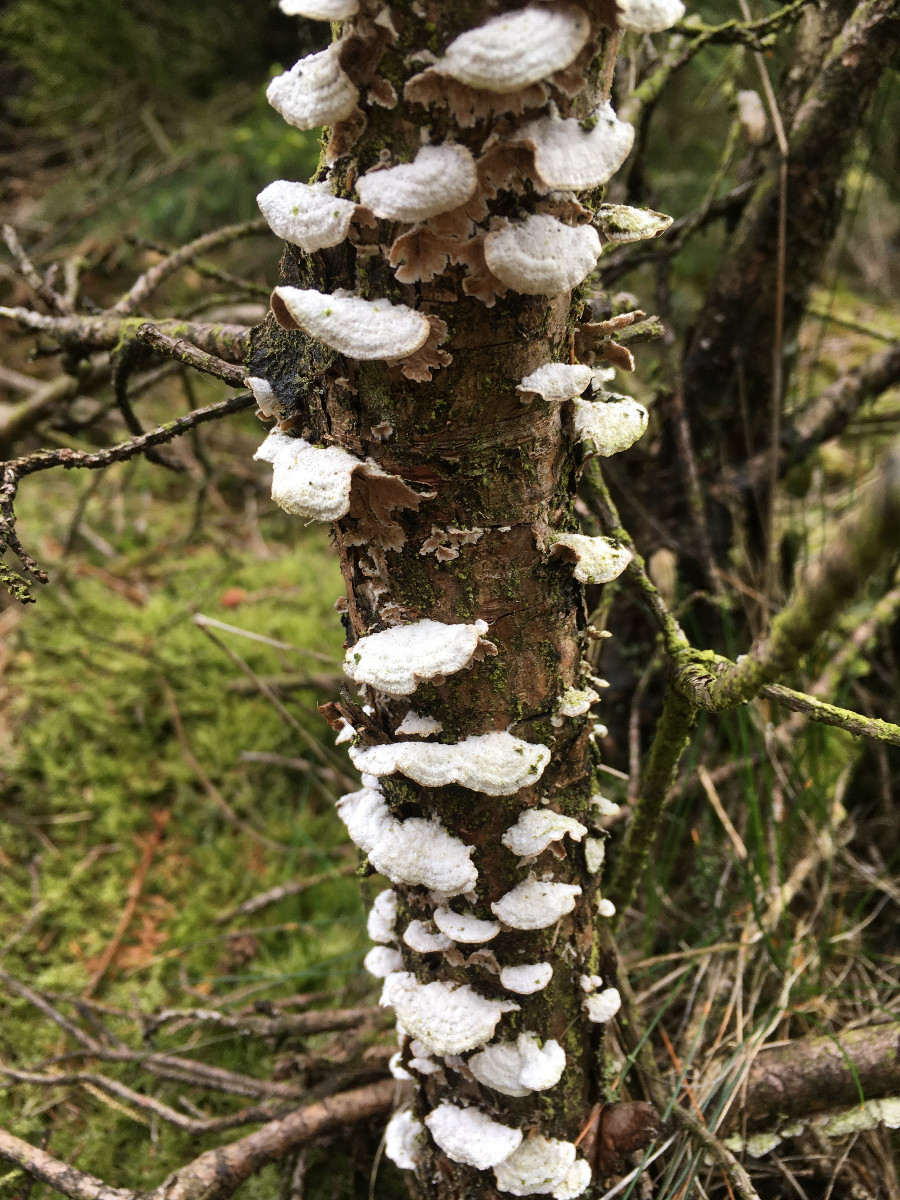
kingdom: Fungi
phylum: Basidiomycota
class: Agaricomycetes
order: Hymenochaetales
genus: Trichaptum
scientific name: Trichaptum fuscoviolaceum
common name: tandet violporesvamp
